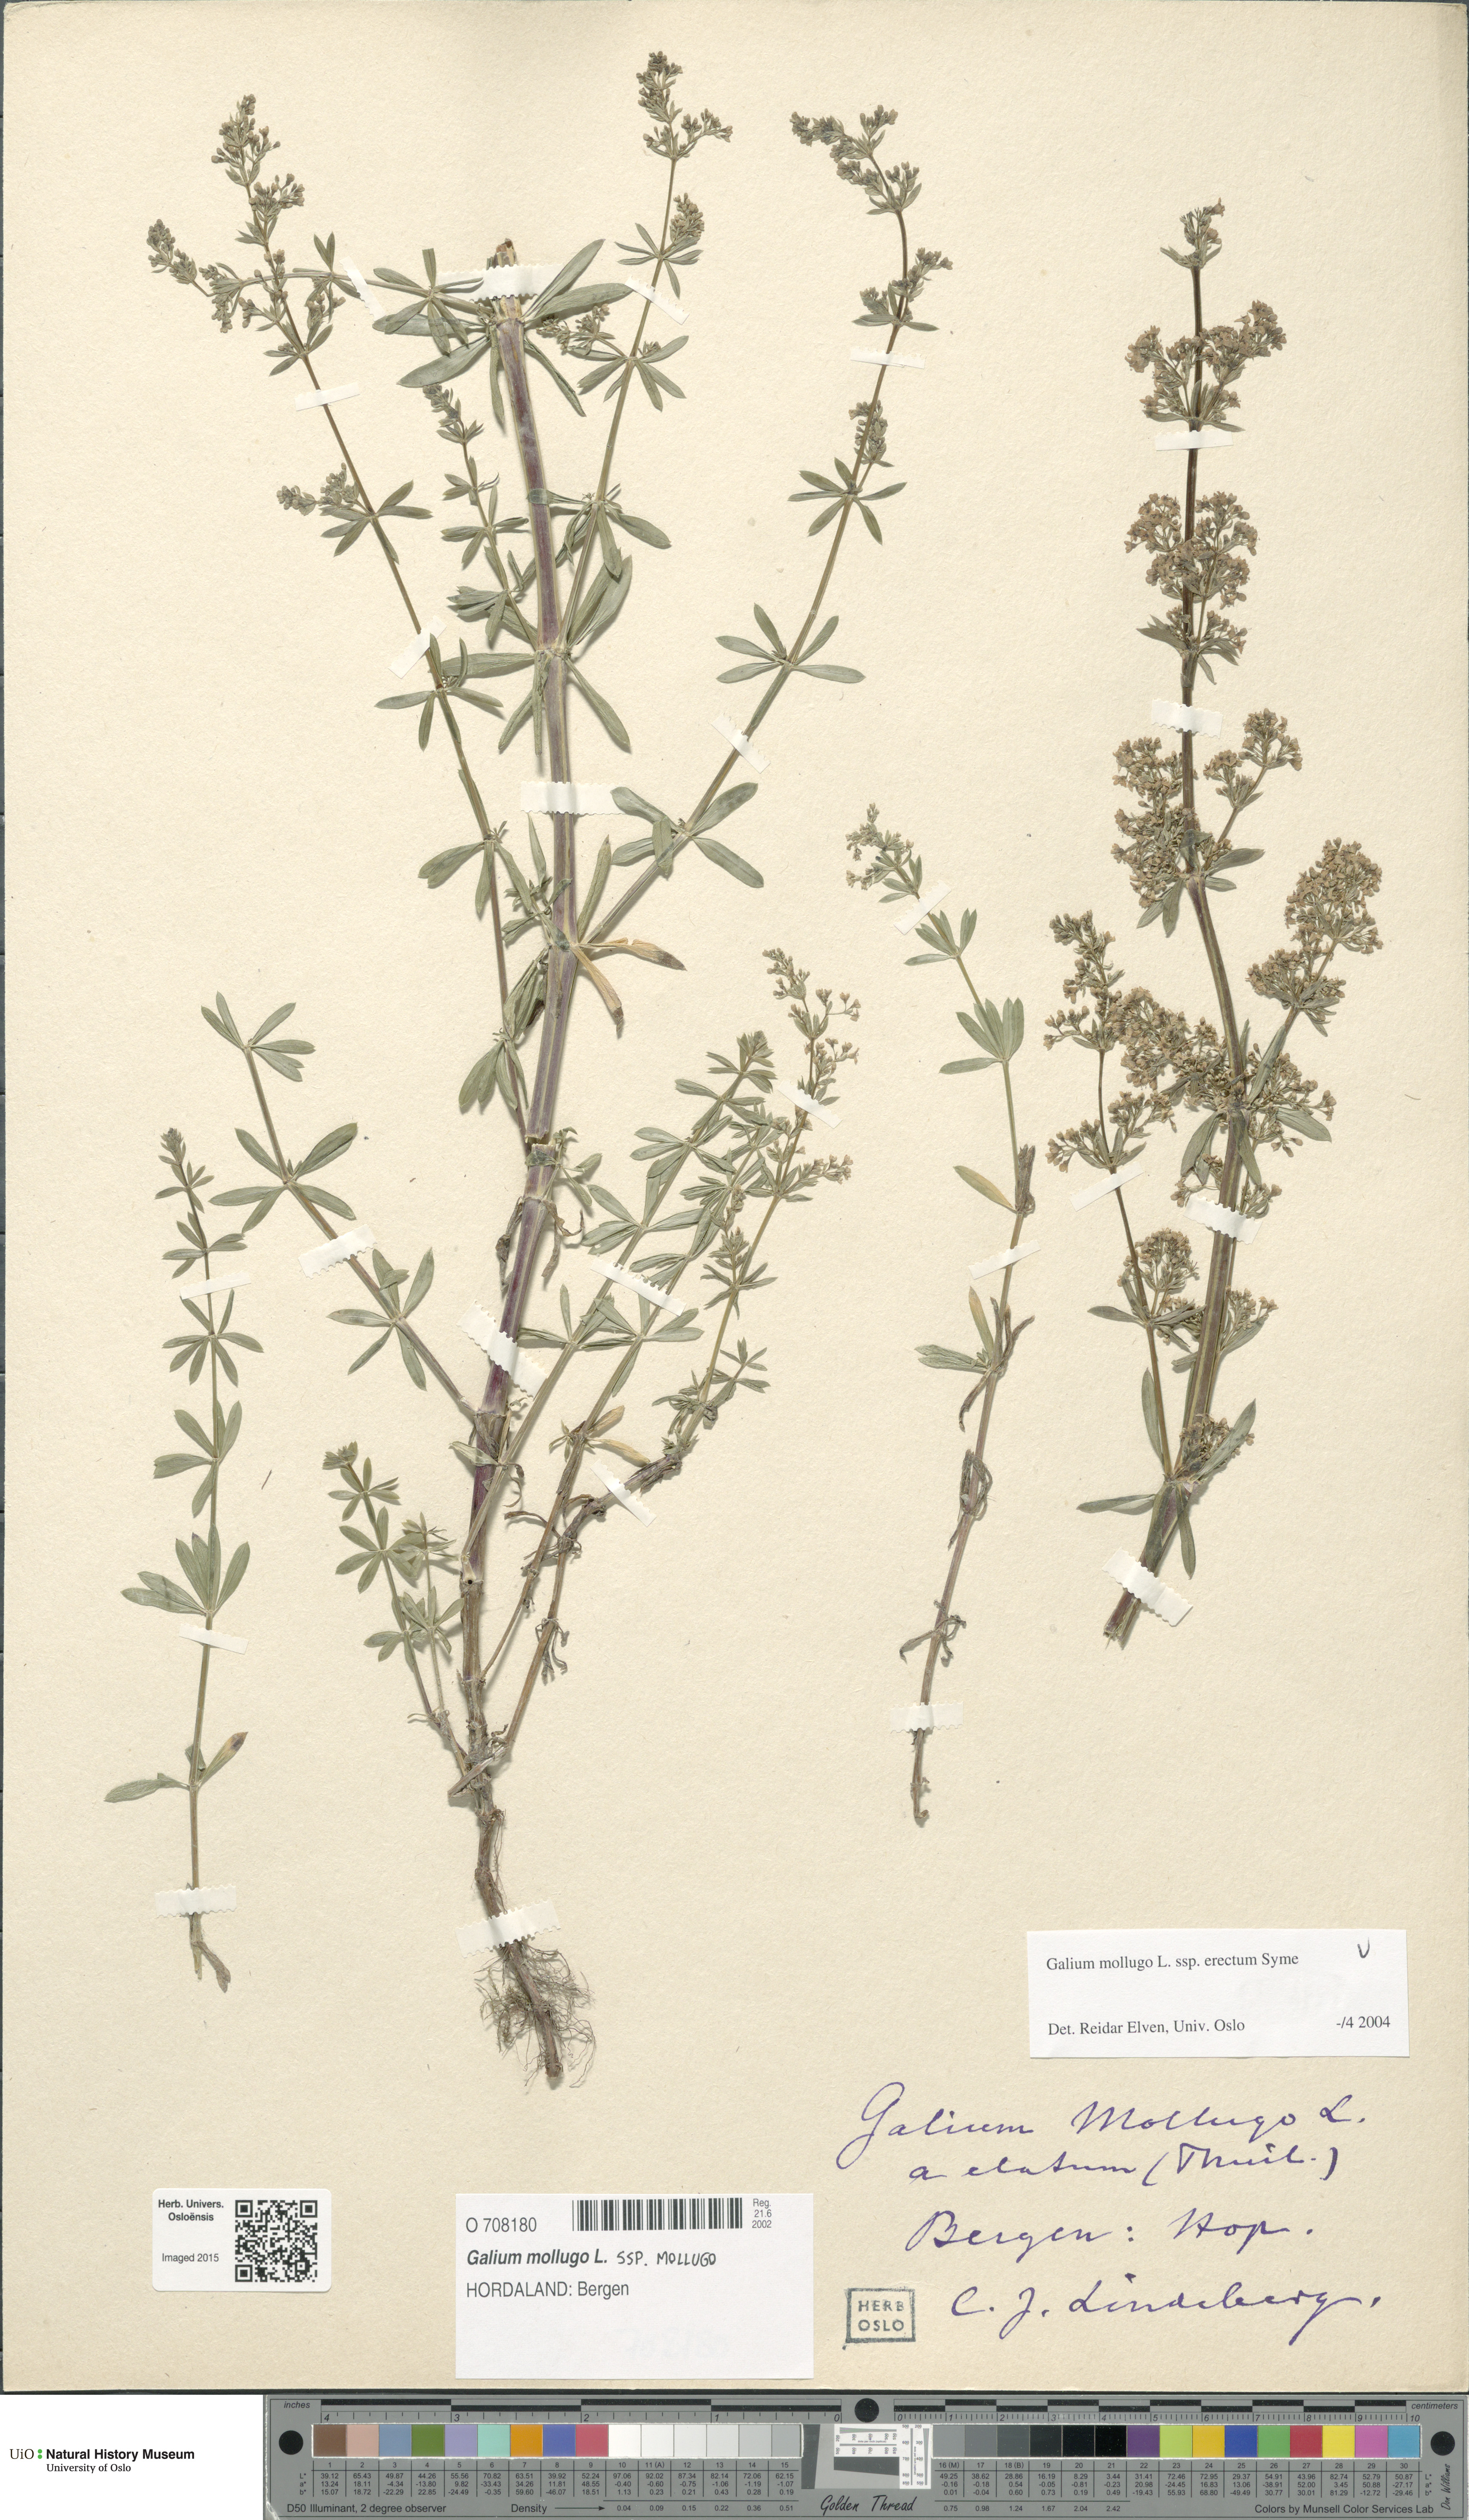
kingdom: Plantae
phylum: Tracheophyta
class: Magnoliopsida
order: Gentianales
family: Rubiaceae
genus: Galium
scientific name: Galium album
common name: White bedstraw
